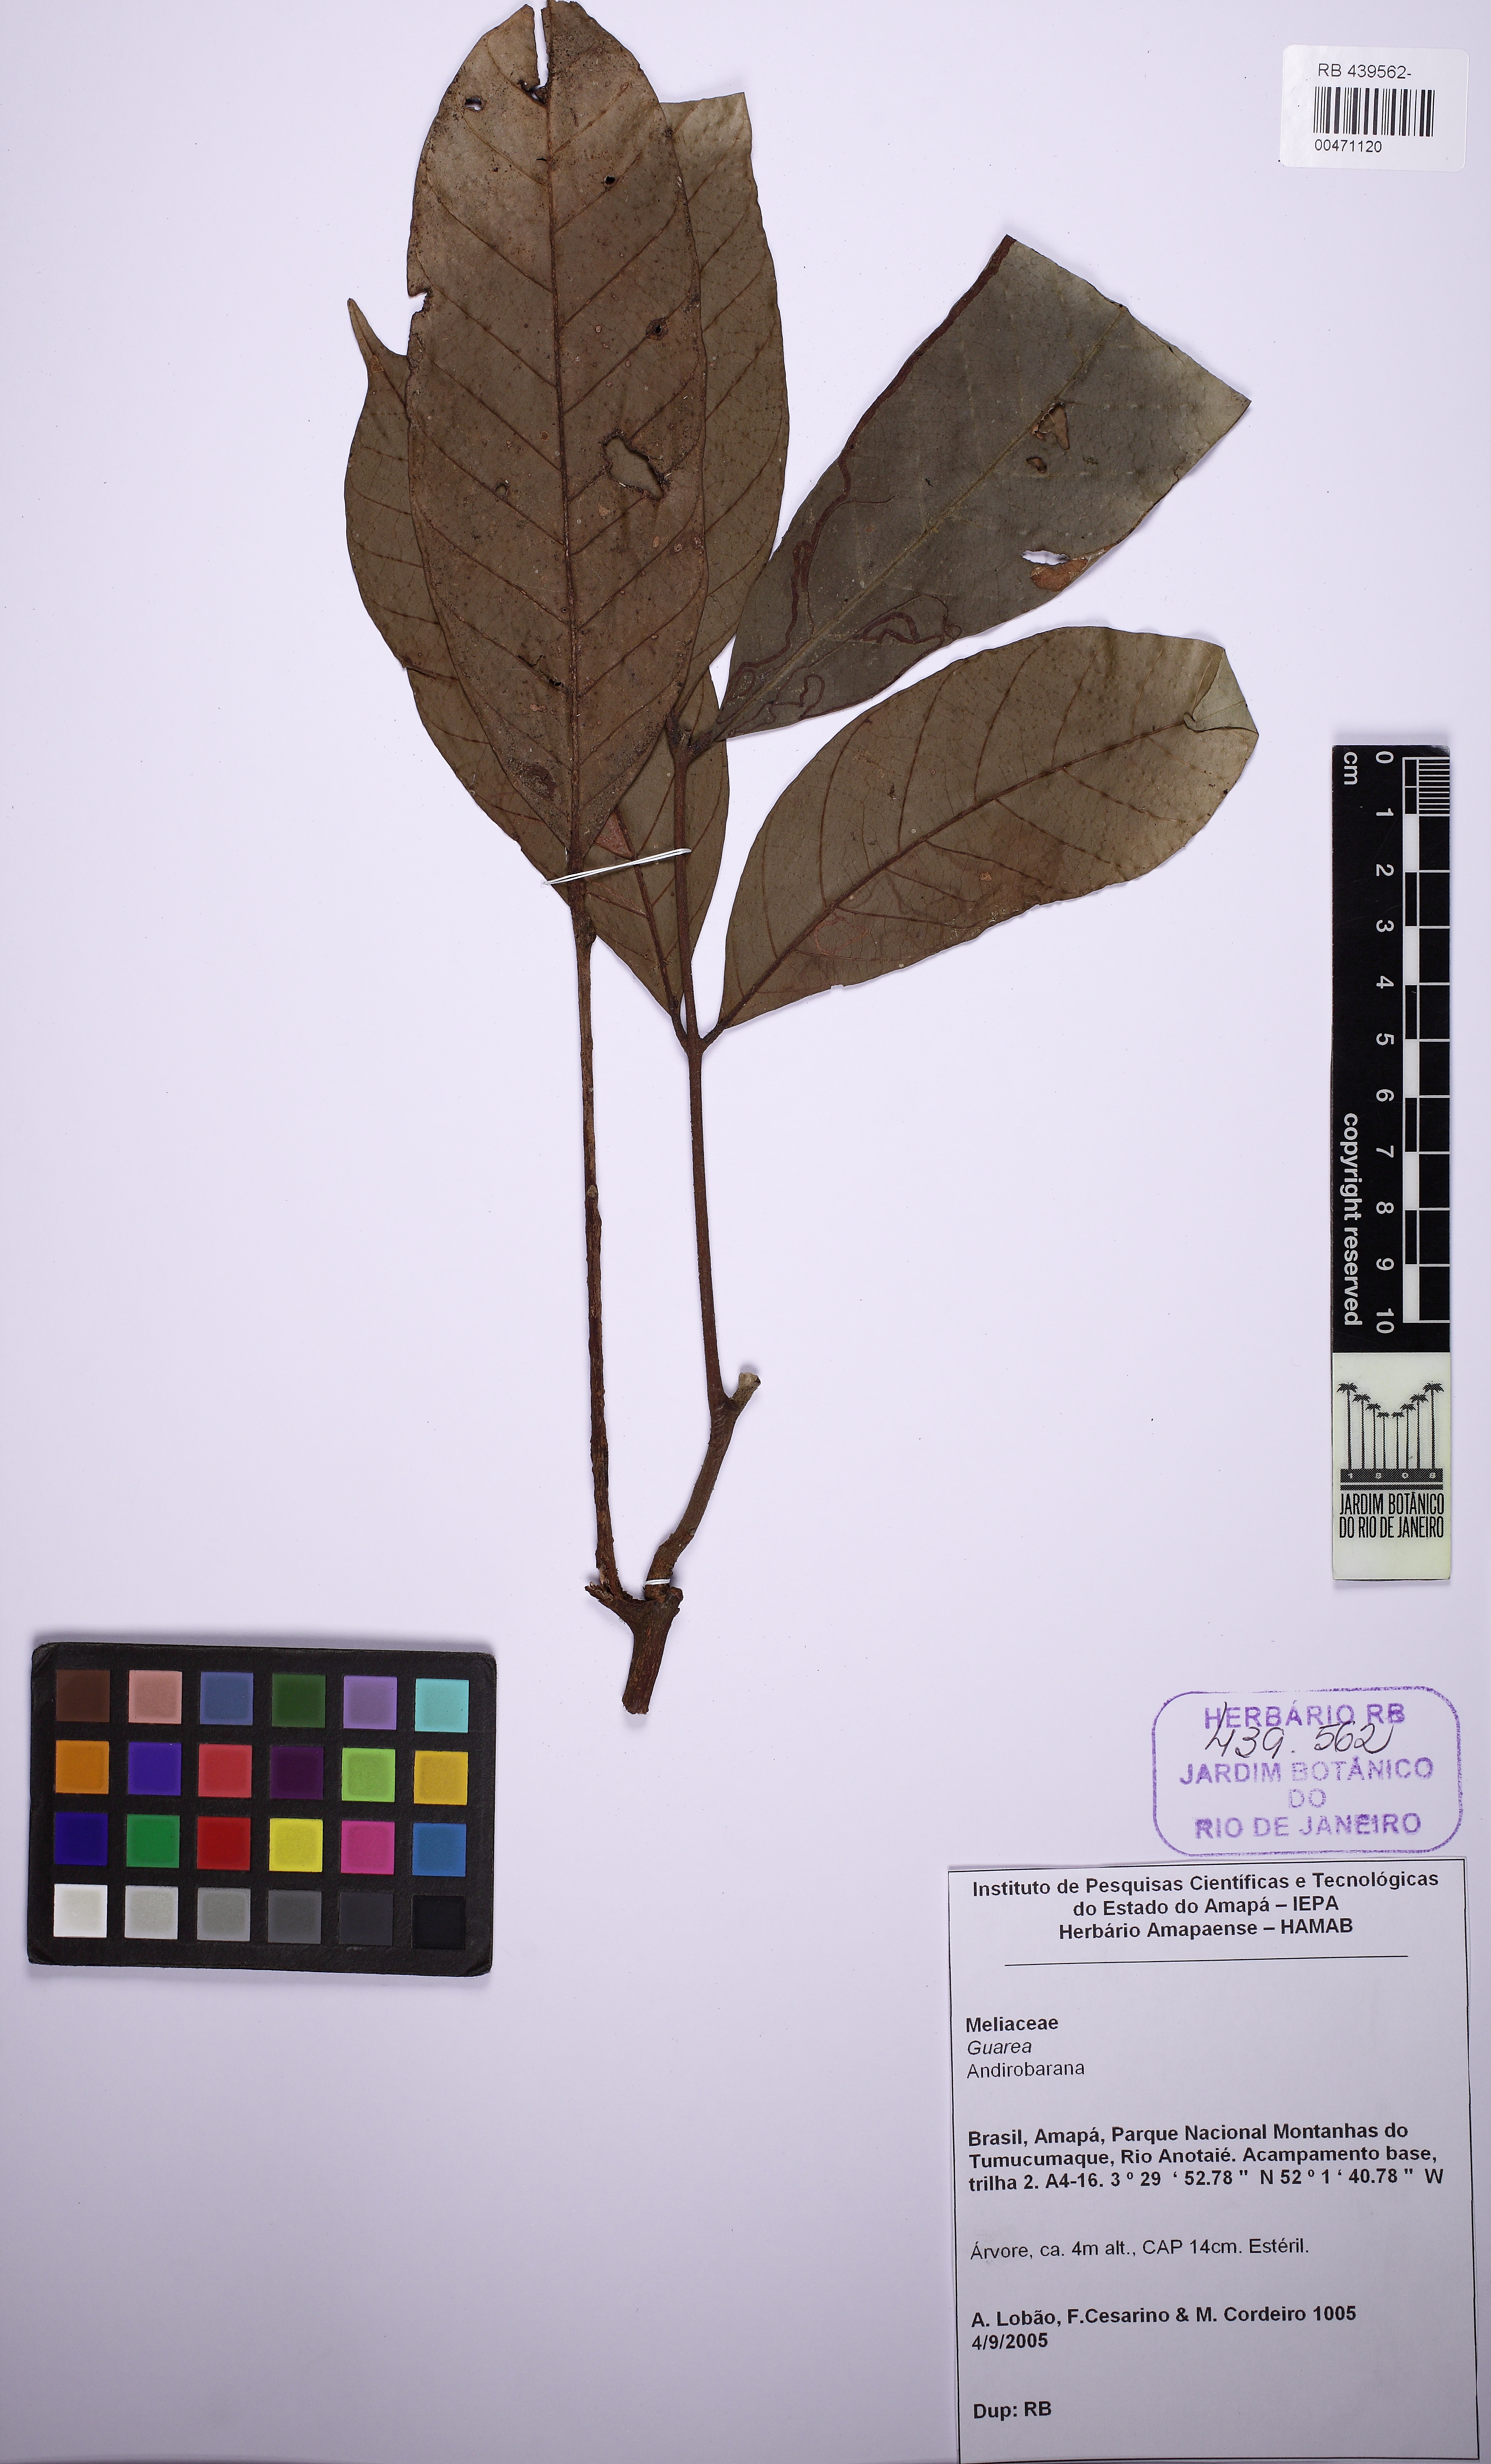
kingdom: Plantae
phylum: Tracheophyta
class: Magnoliopsida
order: Sapindales
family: Meliaceae
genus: Guarea
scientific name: Guarea
